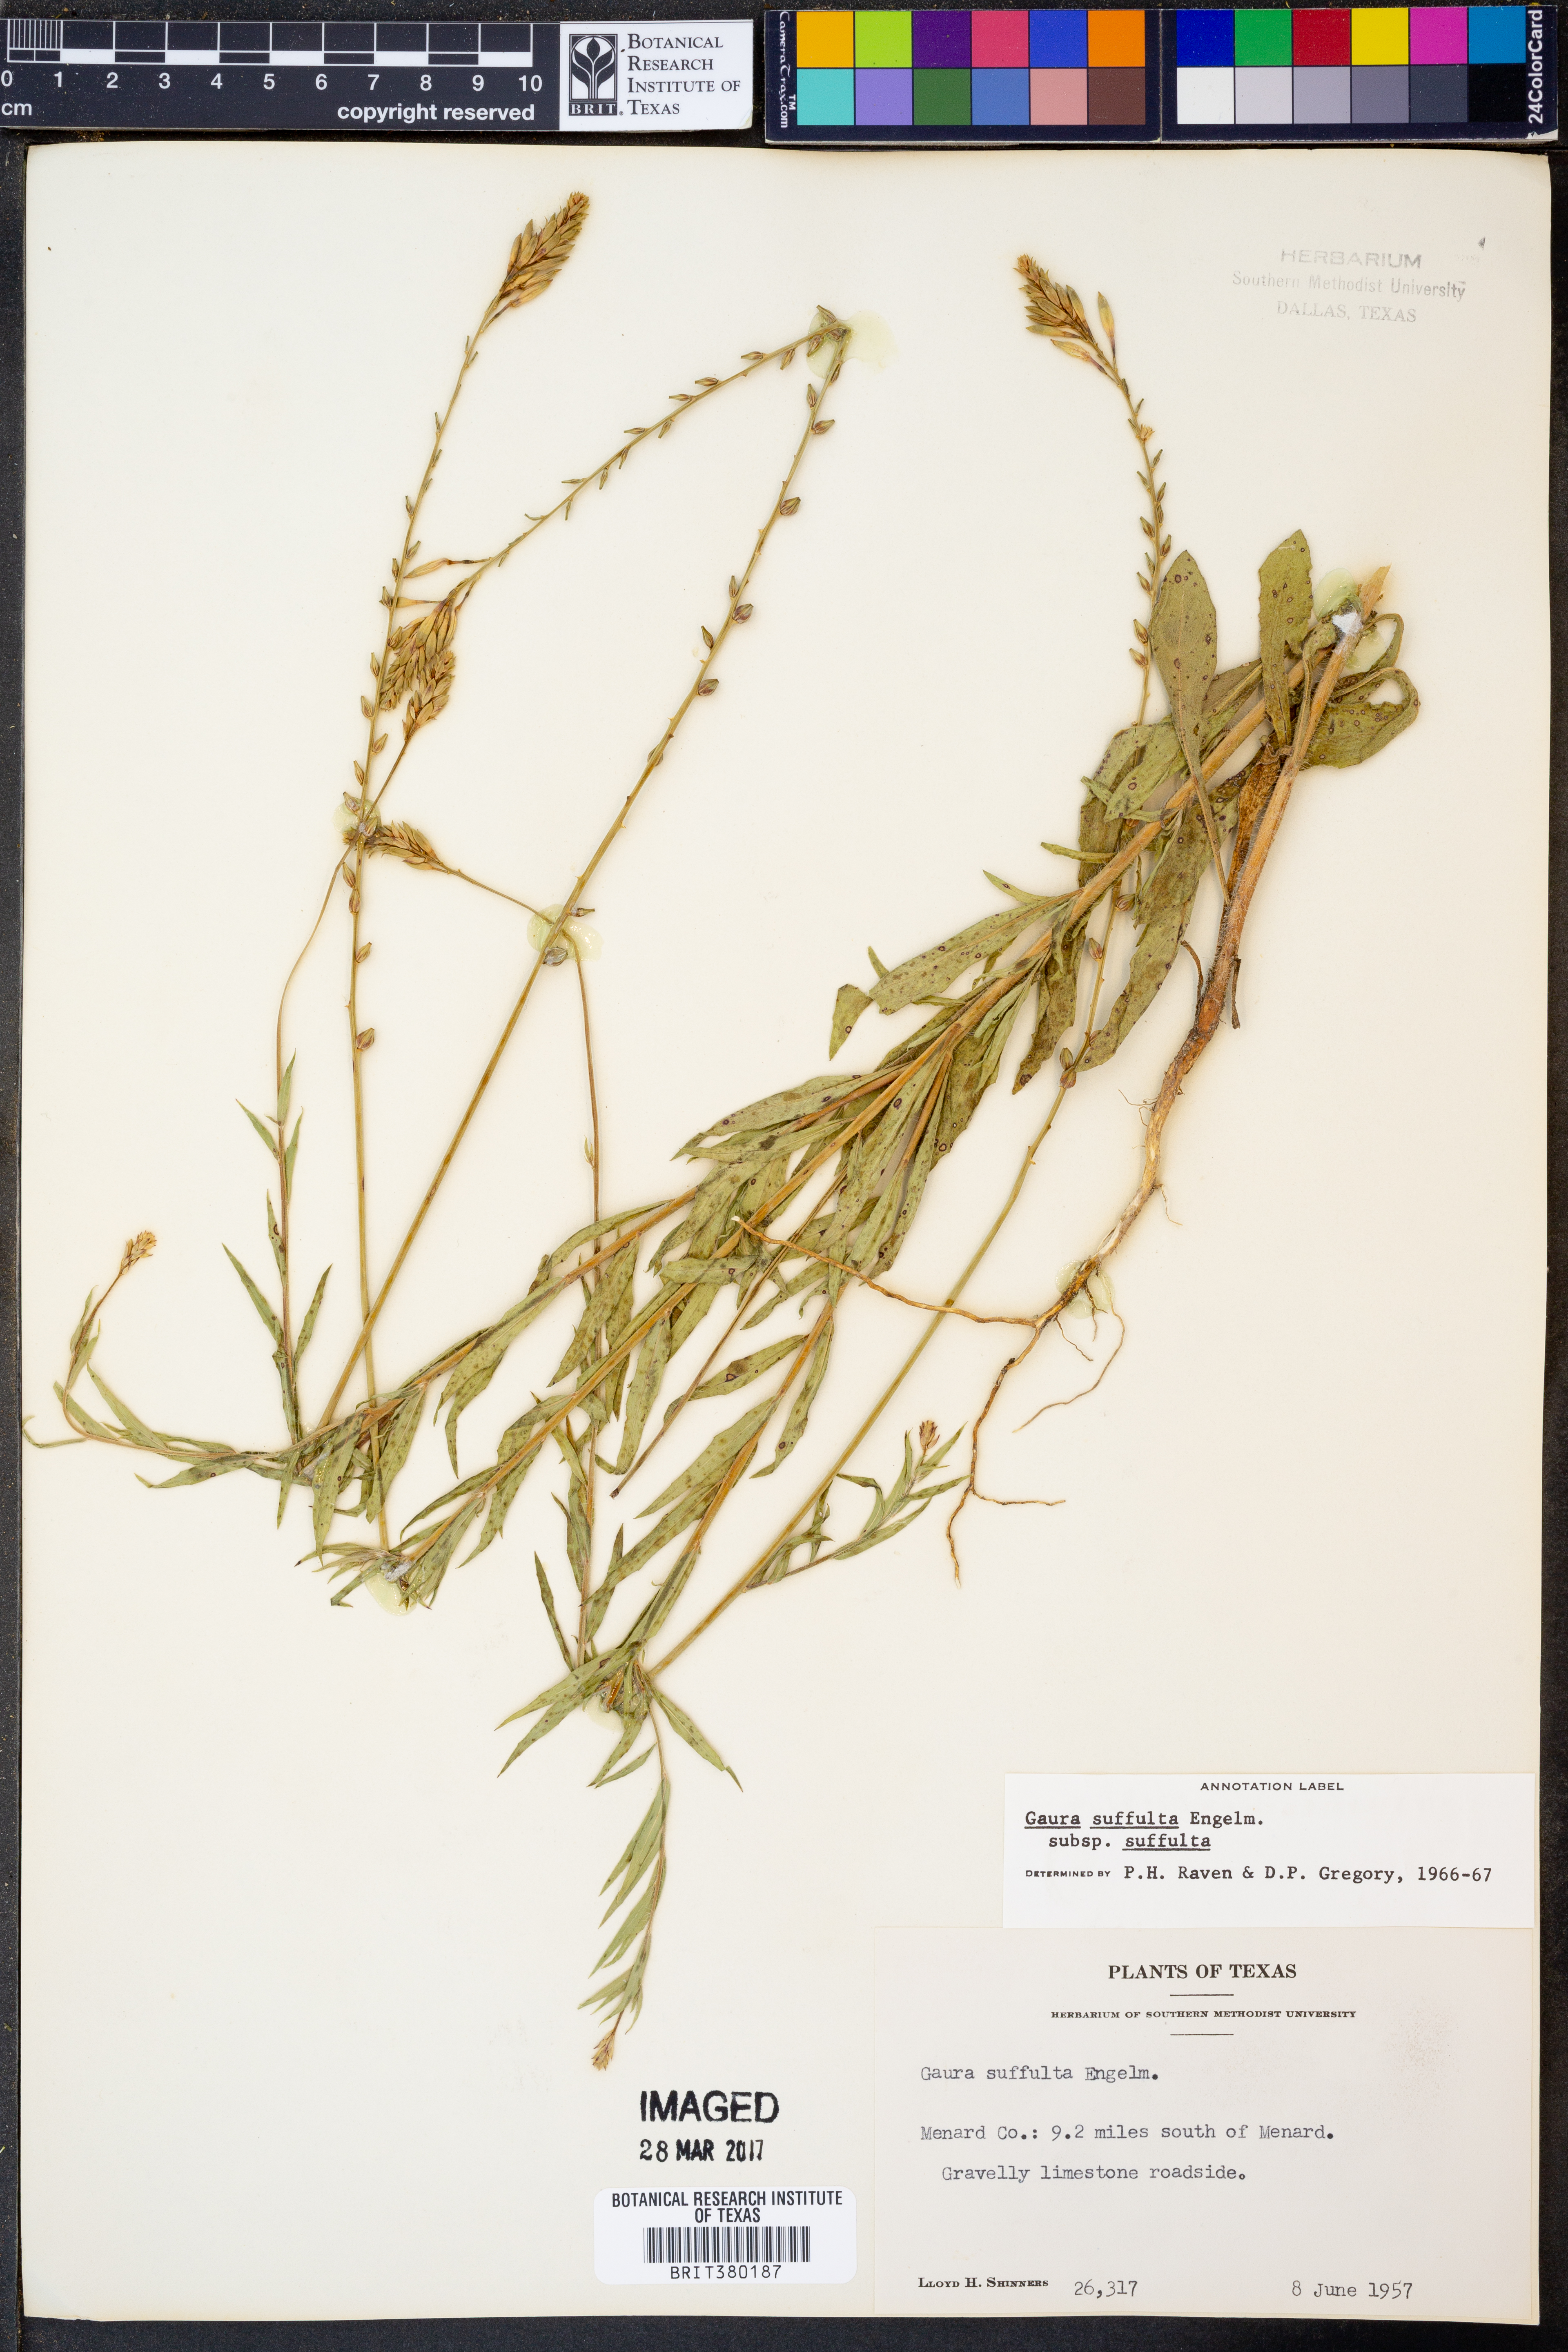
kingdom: Plantae
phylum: Tracheophyta
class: Magnoliopsida
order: Myrtales
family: Onagraceae
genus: Oenothera
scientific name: Oenothera suffulta
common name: Kisses
